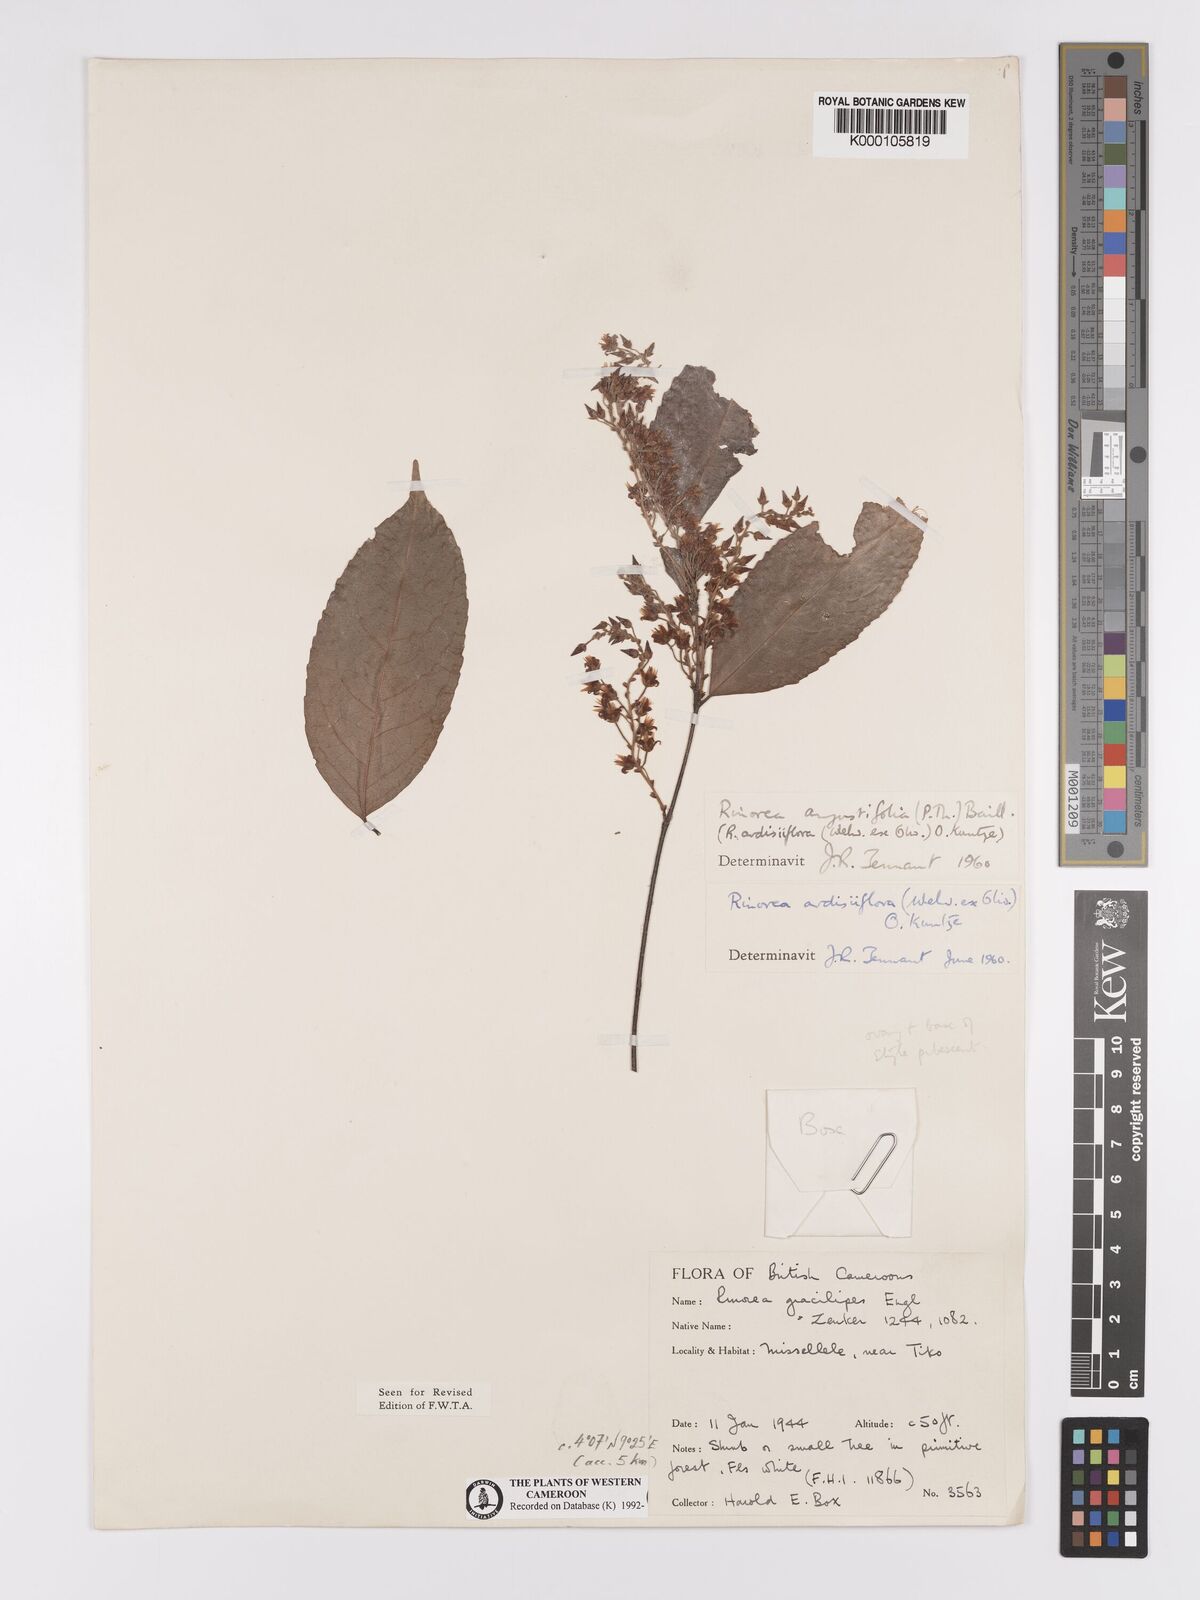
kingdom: Plantae
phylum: Tracheophyta
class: Magnoliopsida
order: Malpighiales
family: Violaceae
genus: Rinorea
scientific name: Rinorea angustifolia
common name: White violet-bush
